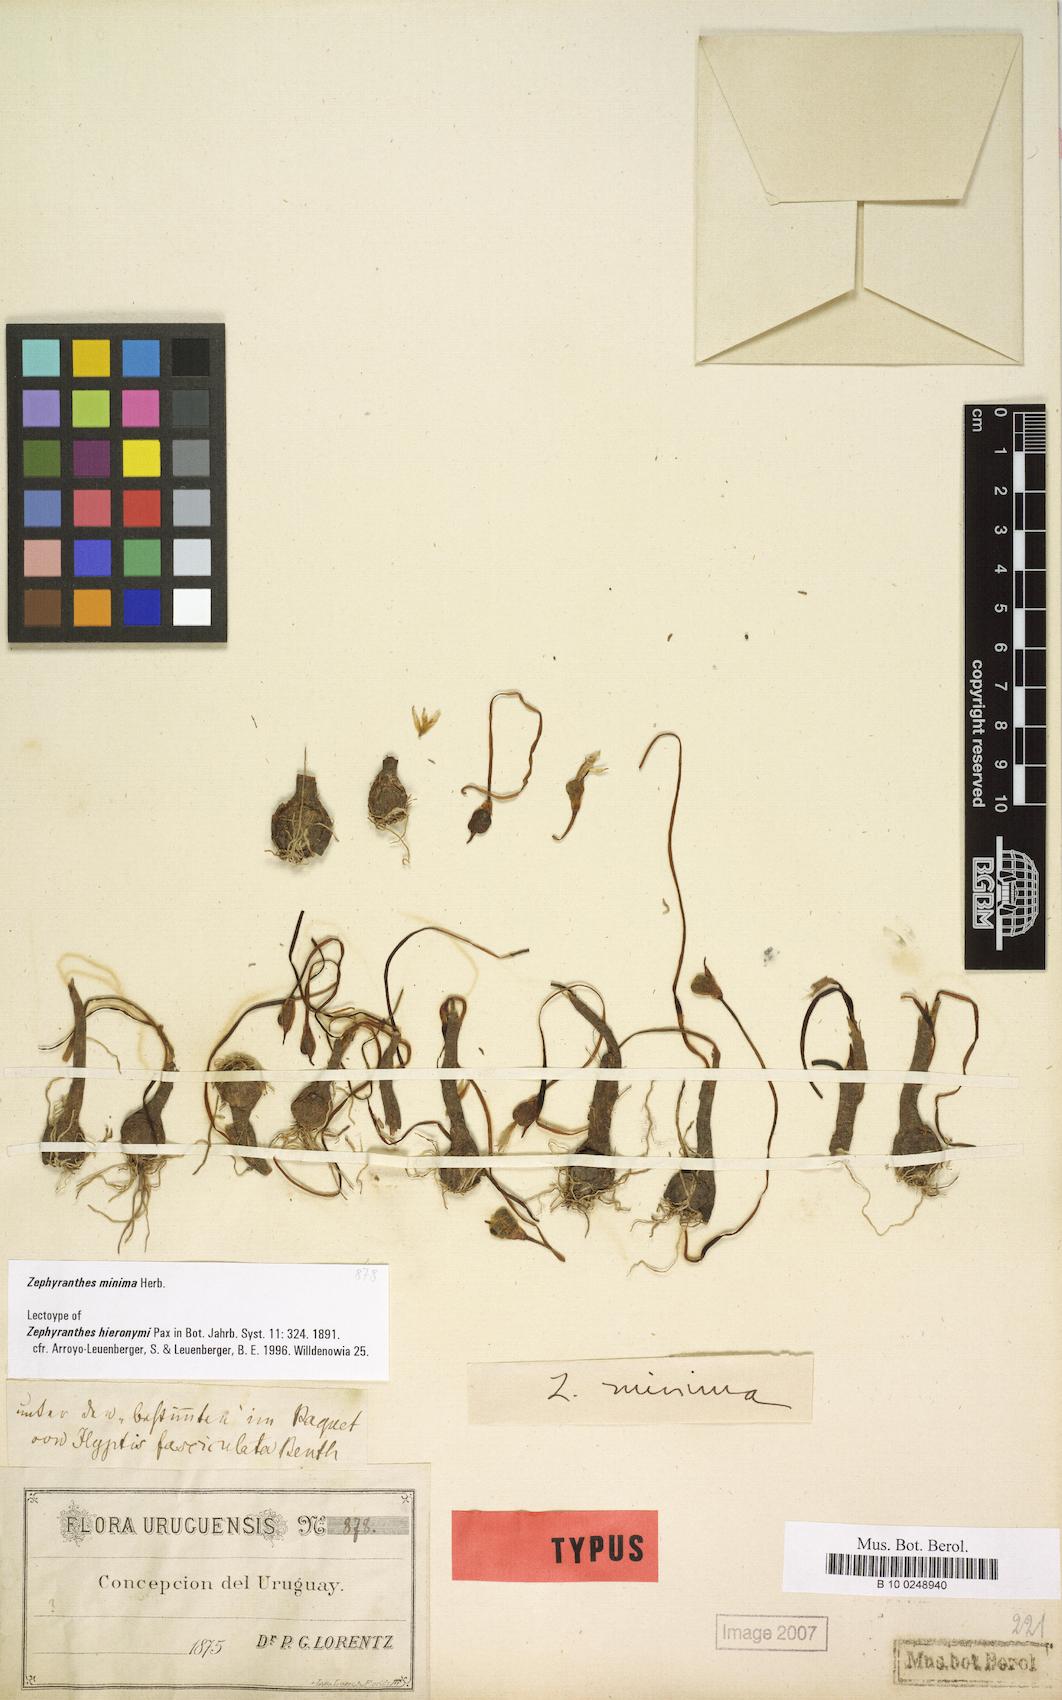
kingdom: Plantae
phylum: Tracheophyta
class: Liliopsida
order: Asparagales
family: Amaryllidaceae
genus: Zephyranthes
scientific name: Zephyranthes minima
